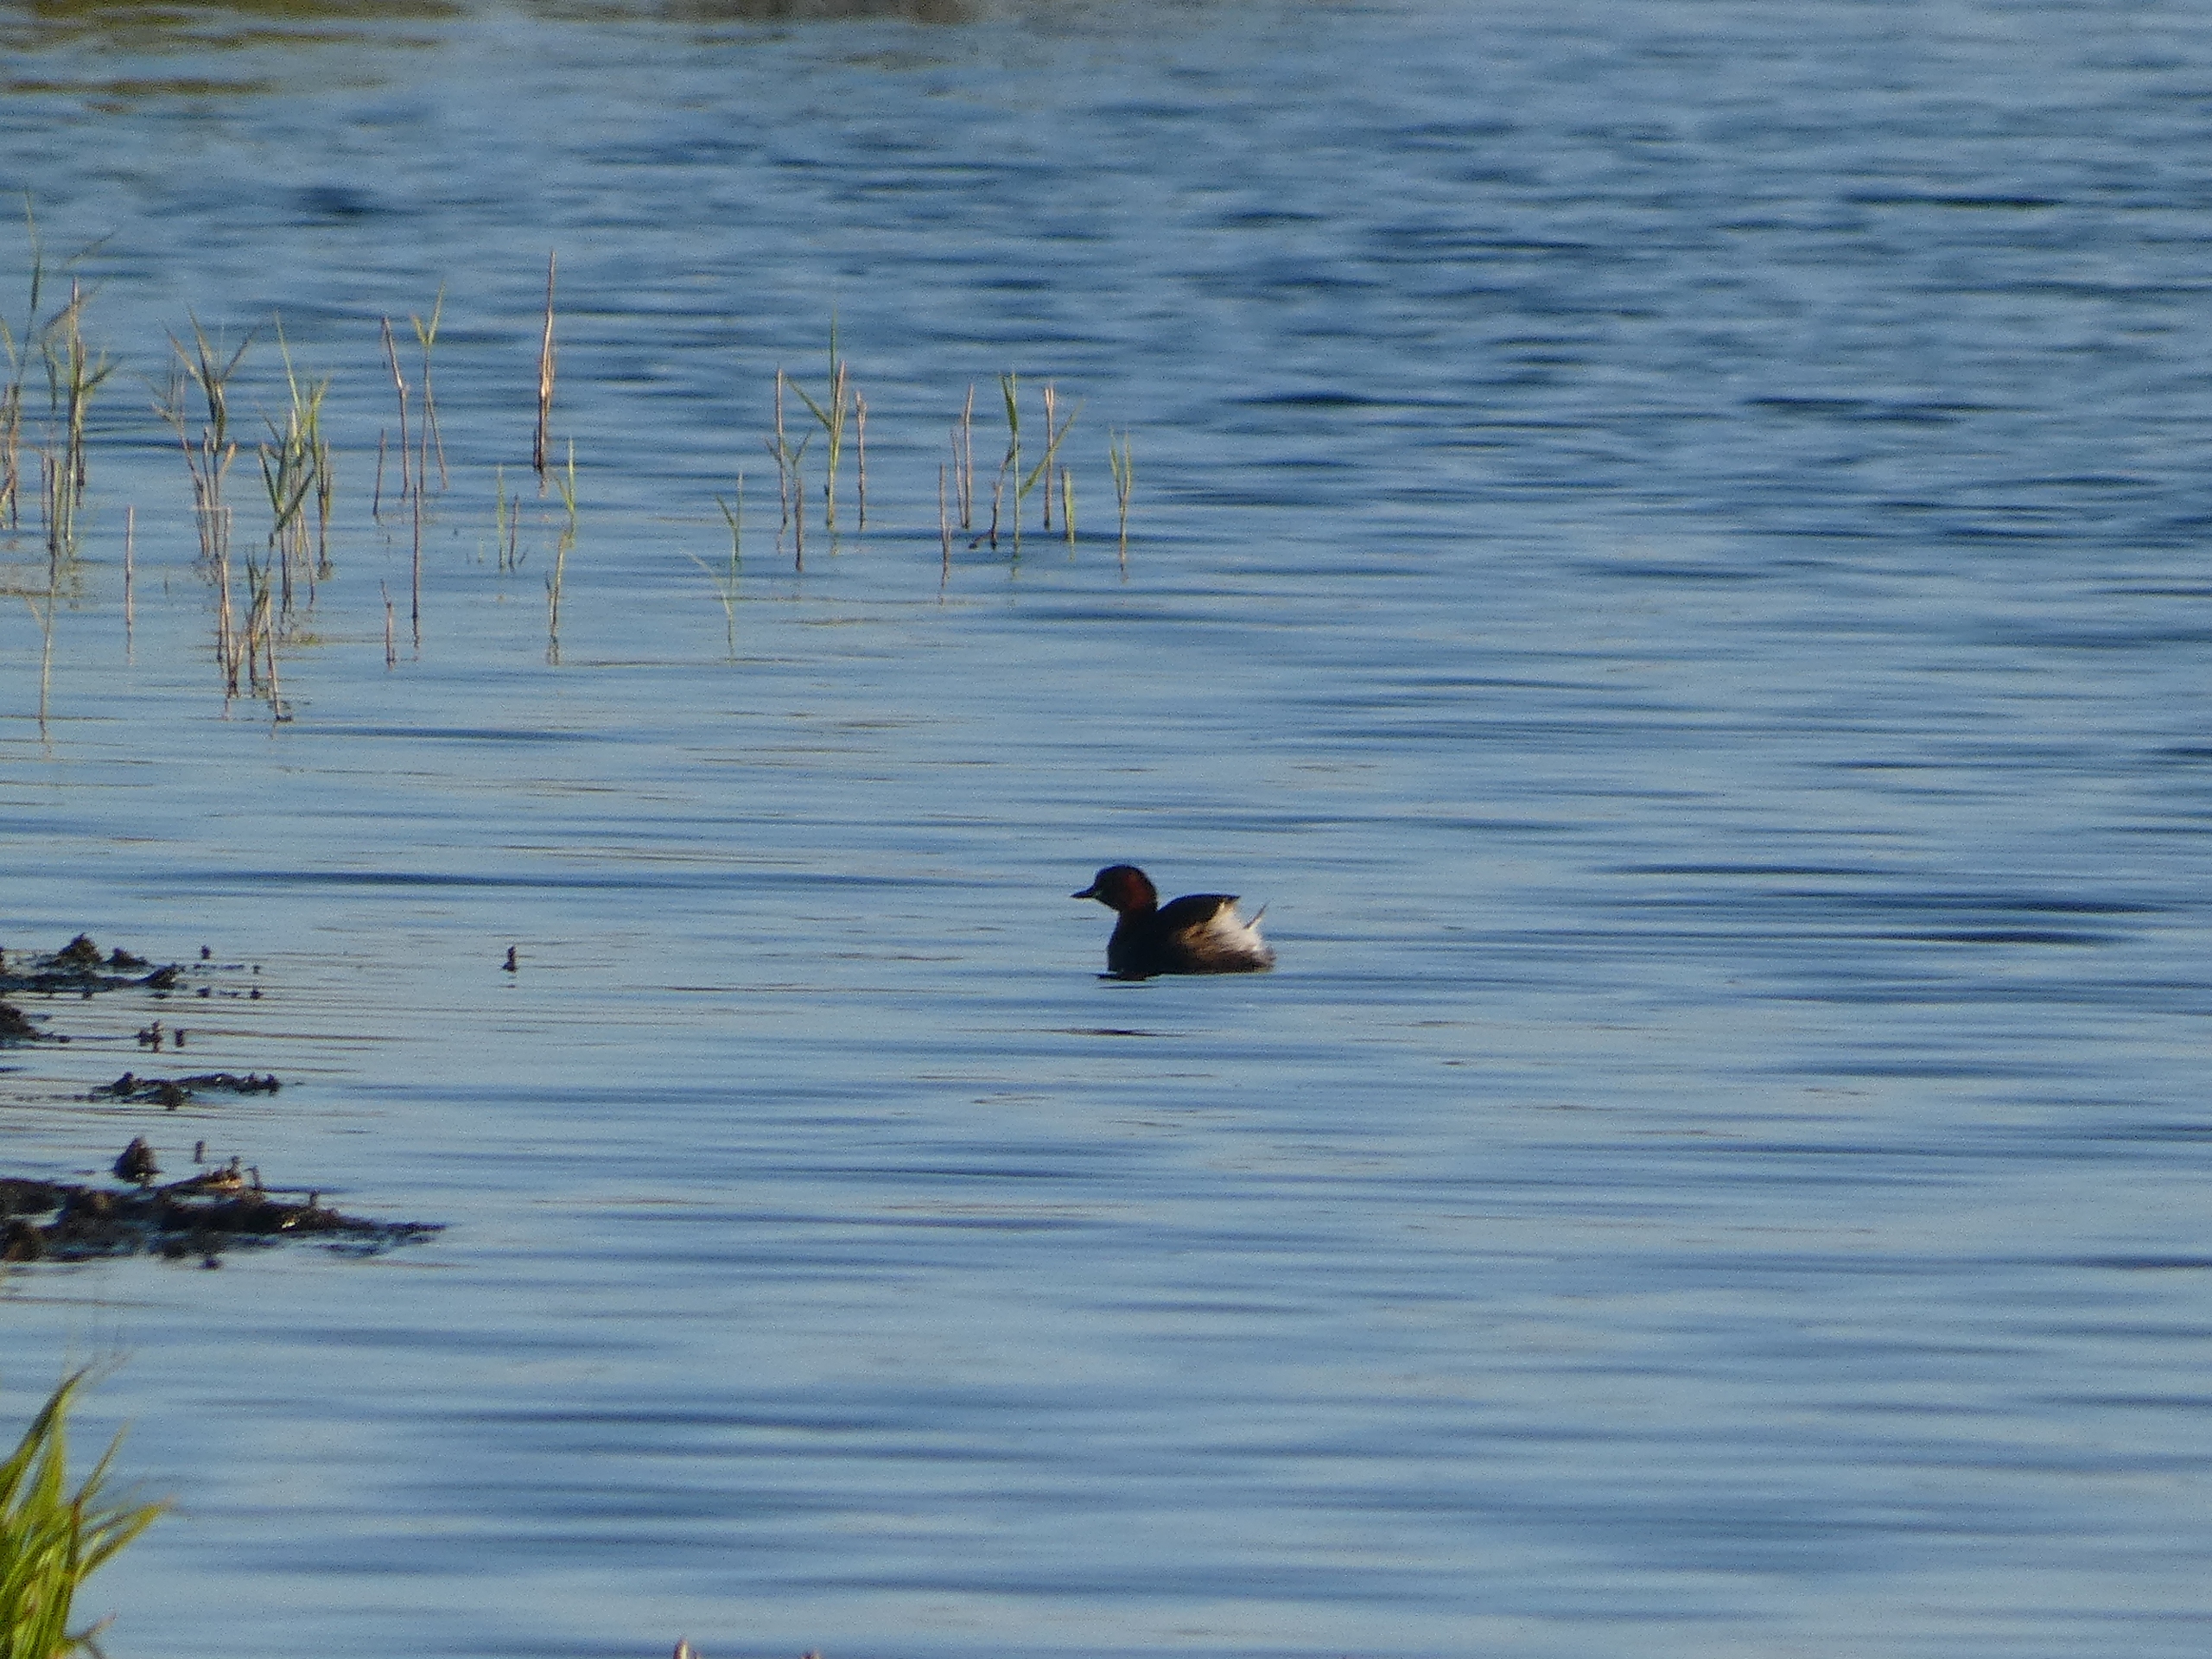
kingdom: Animalia
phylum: Chordata
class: Aves
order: Podicipediformes
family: Podicipedidae
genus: Tachybaptus
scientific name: Tachybaptus ruficollis
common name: Lille lappedykker
